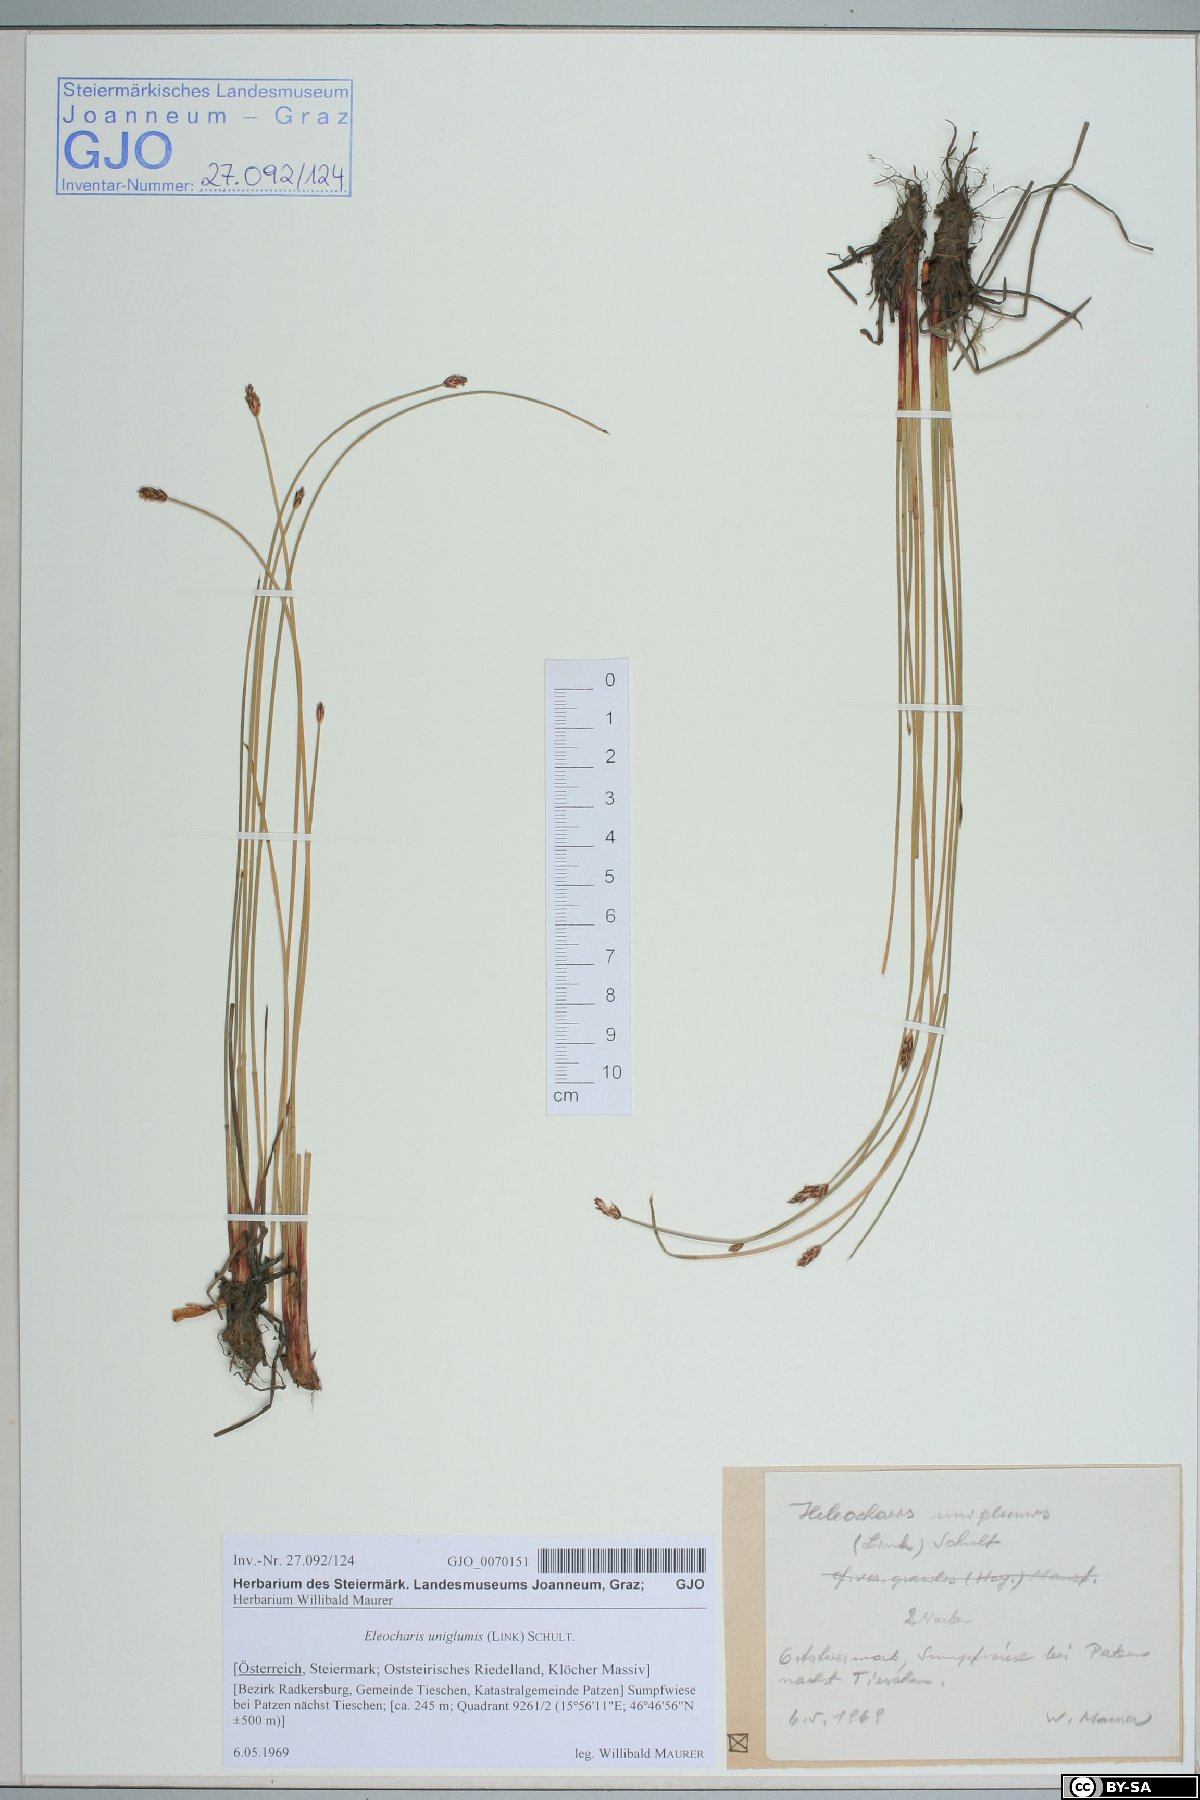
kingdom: Plantae
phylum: Tracheophyta
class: Liliopsida
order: Poales
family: Cyperaceae
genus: Eleocharis
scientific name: Eleocharis uniglumis
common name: Slender spike-rush
